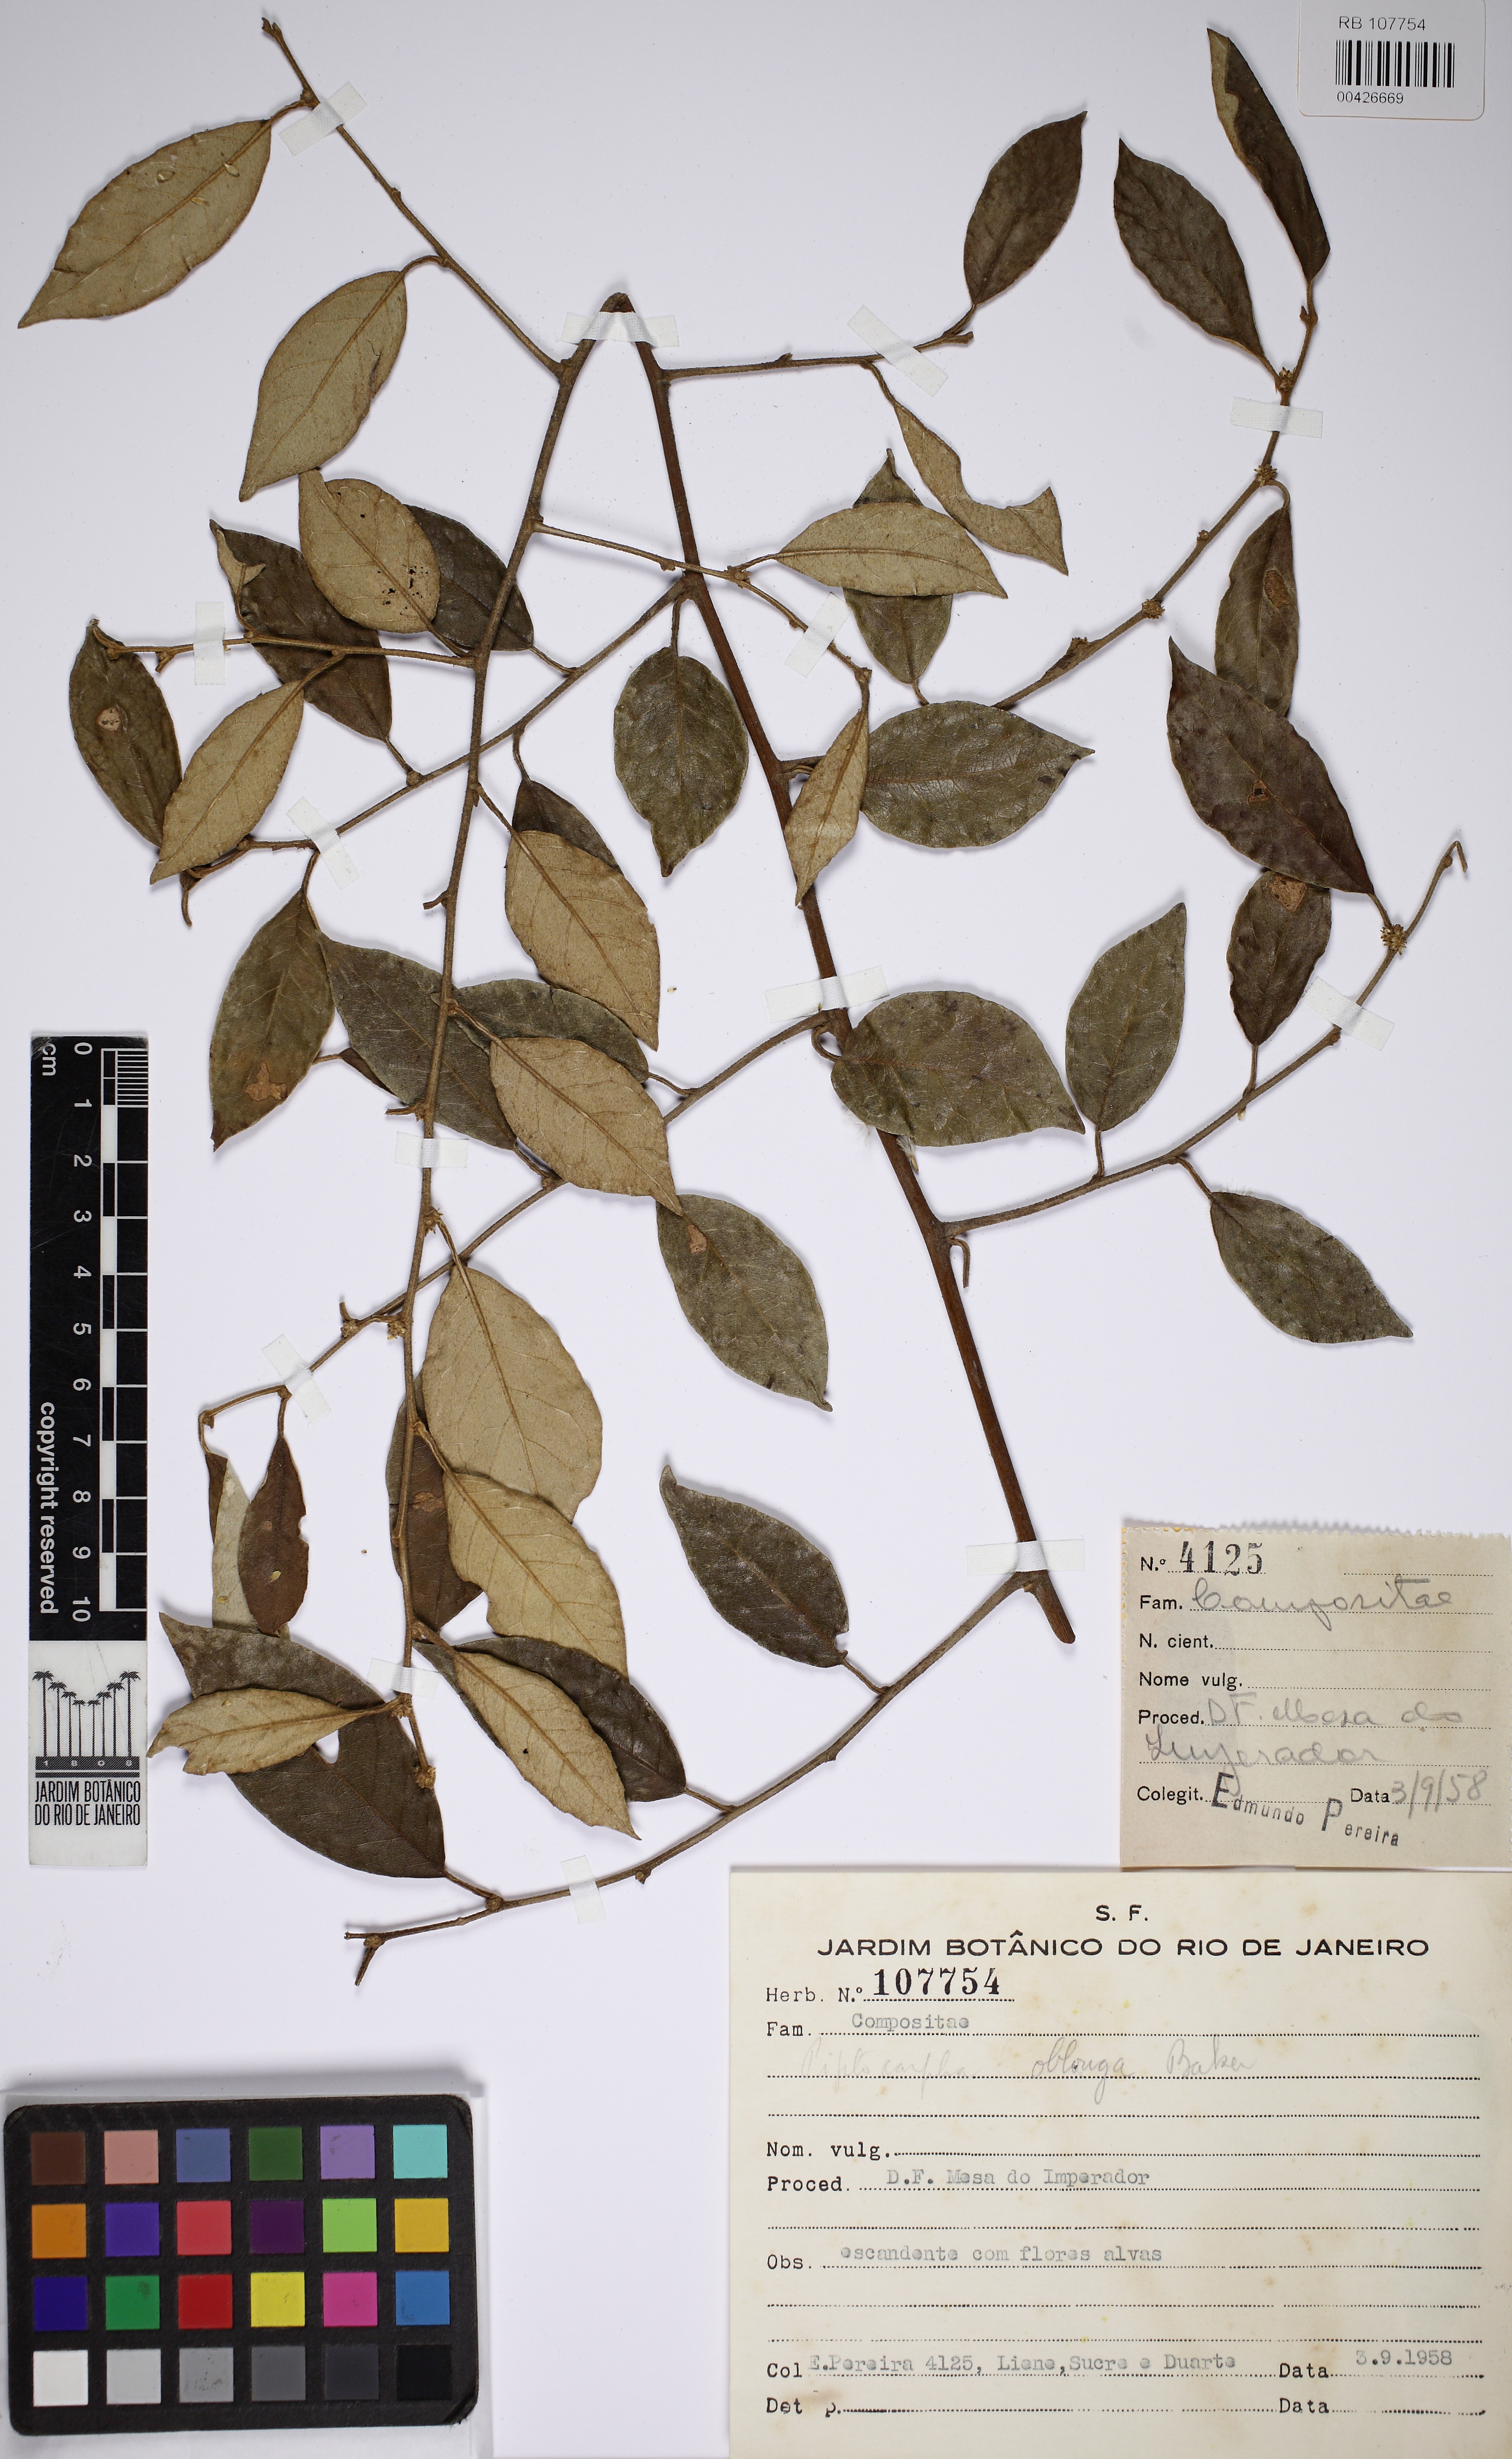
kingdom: Plantae
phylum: Tracheophyta
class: Magnoliopsida
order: Asterales
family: Asteraceae
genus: Piptocarpha
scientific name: Piptocarpha lucida
